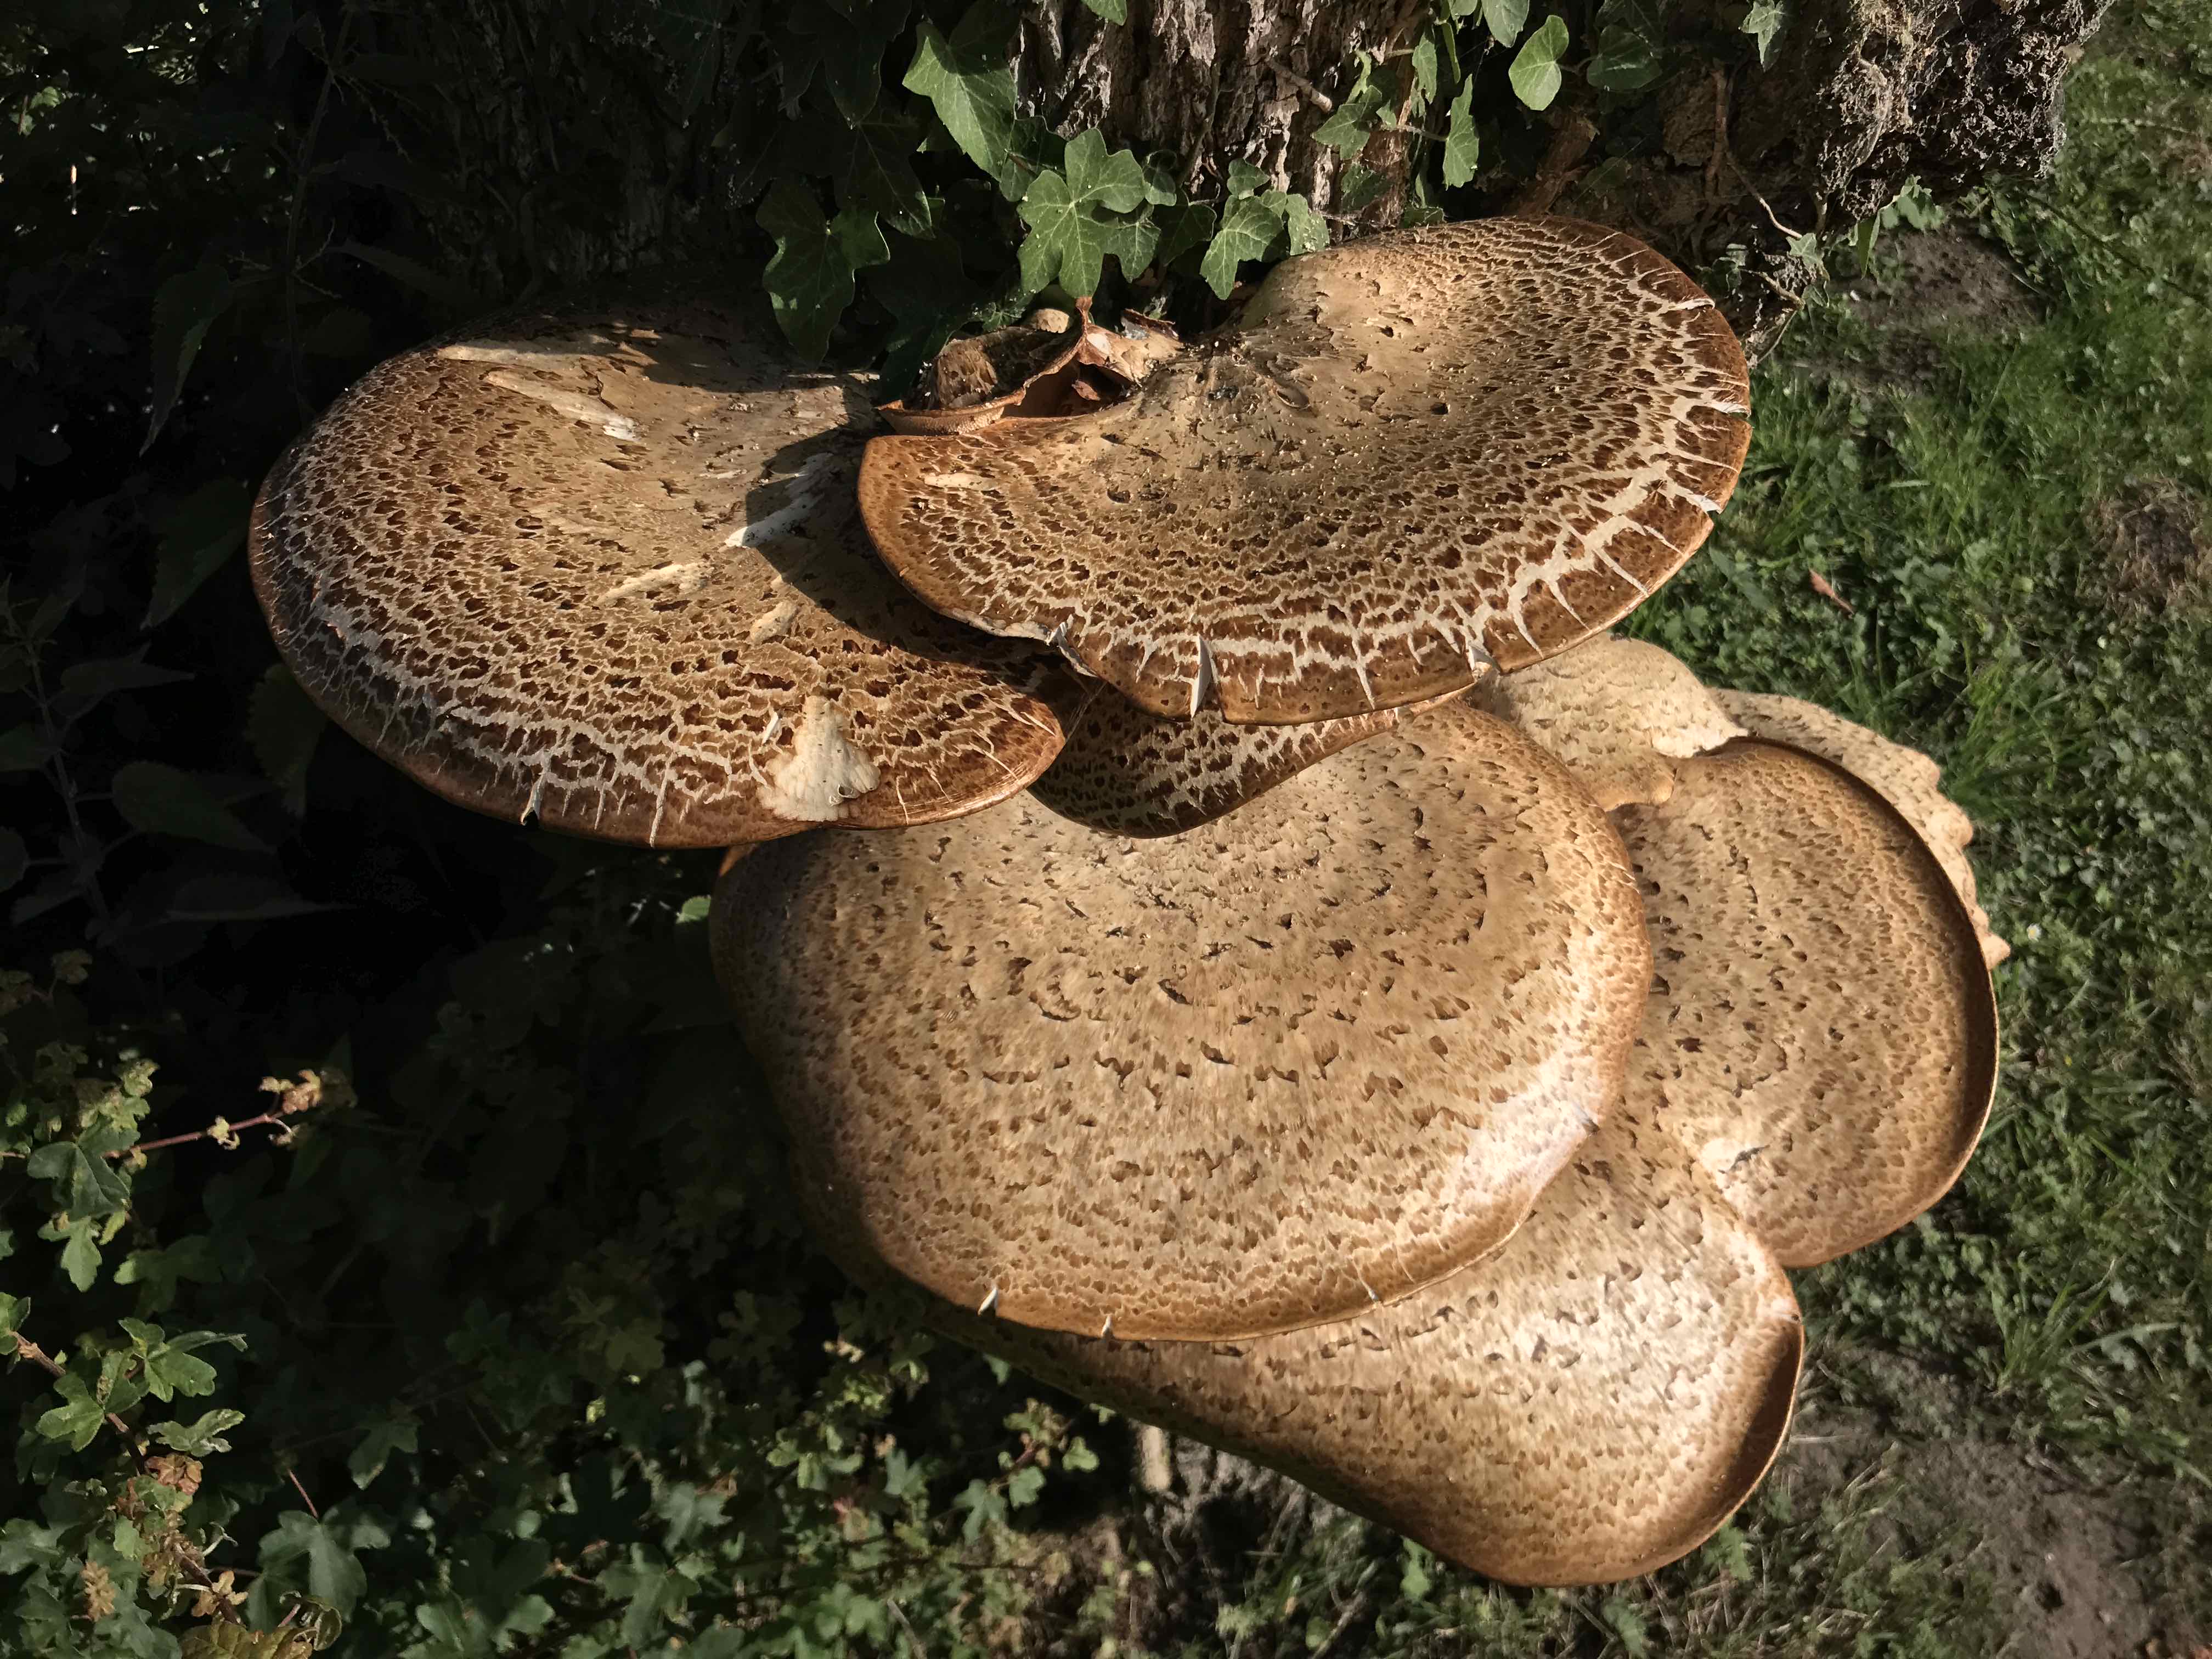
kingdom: Fungi
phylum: Basidiomycota
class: Agaricomycetes
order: Polyporales
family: Polyporaceae
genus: Cerioporus
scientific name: Cerioporus squamosus
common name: skællet stilkporesvamp
